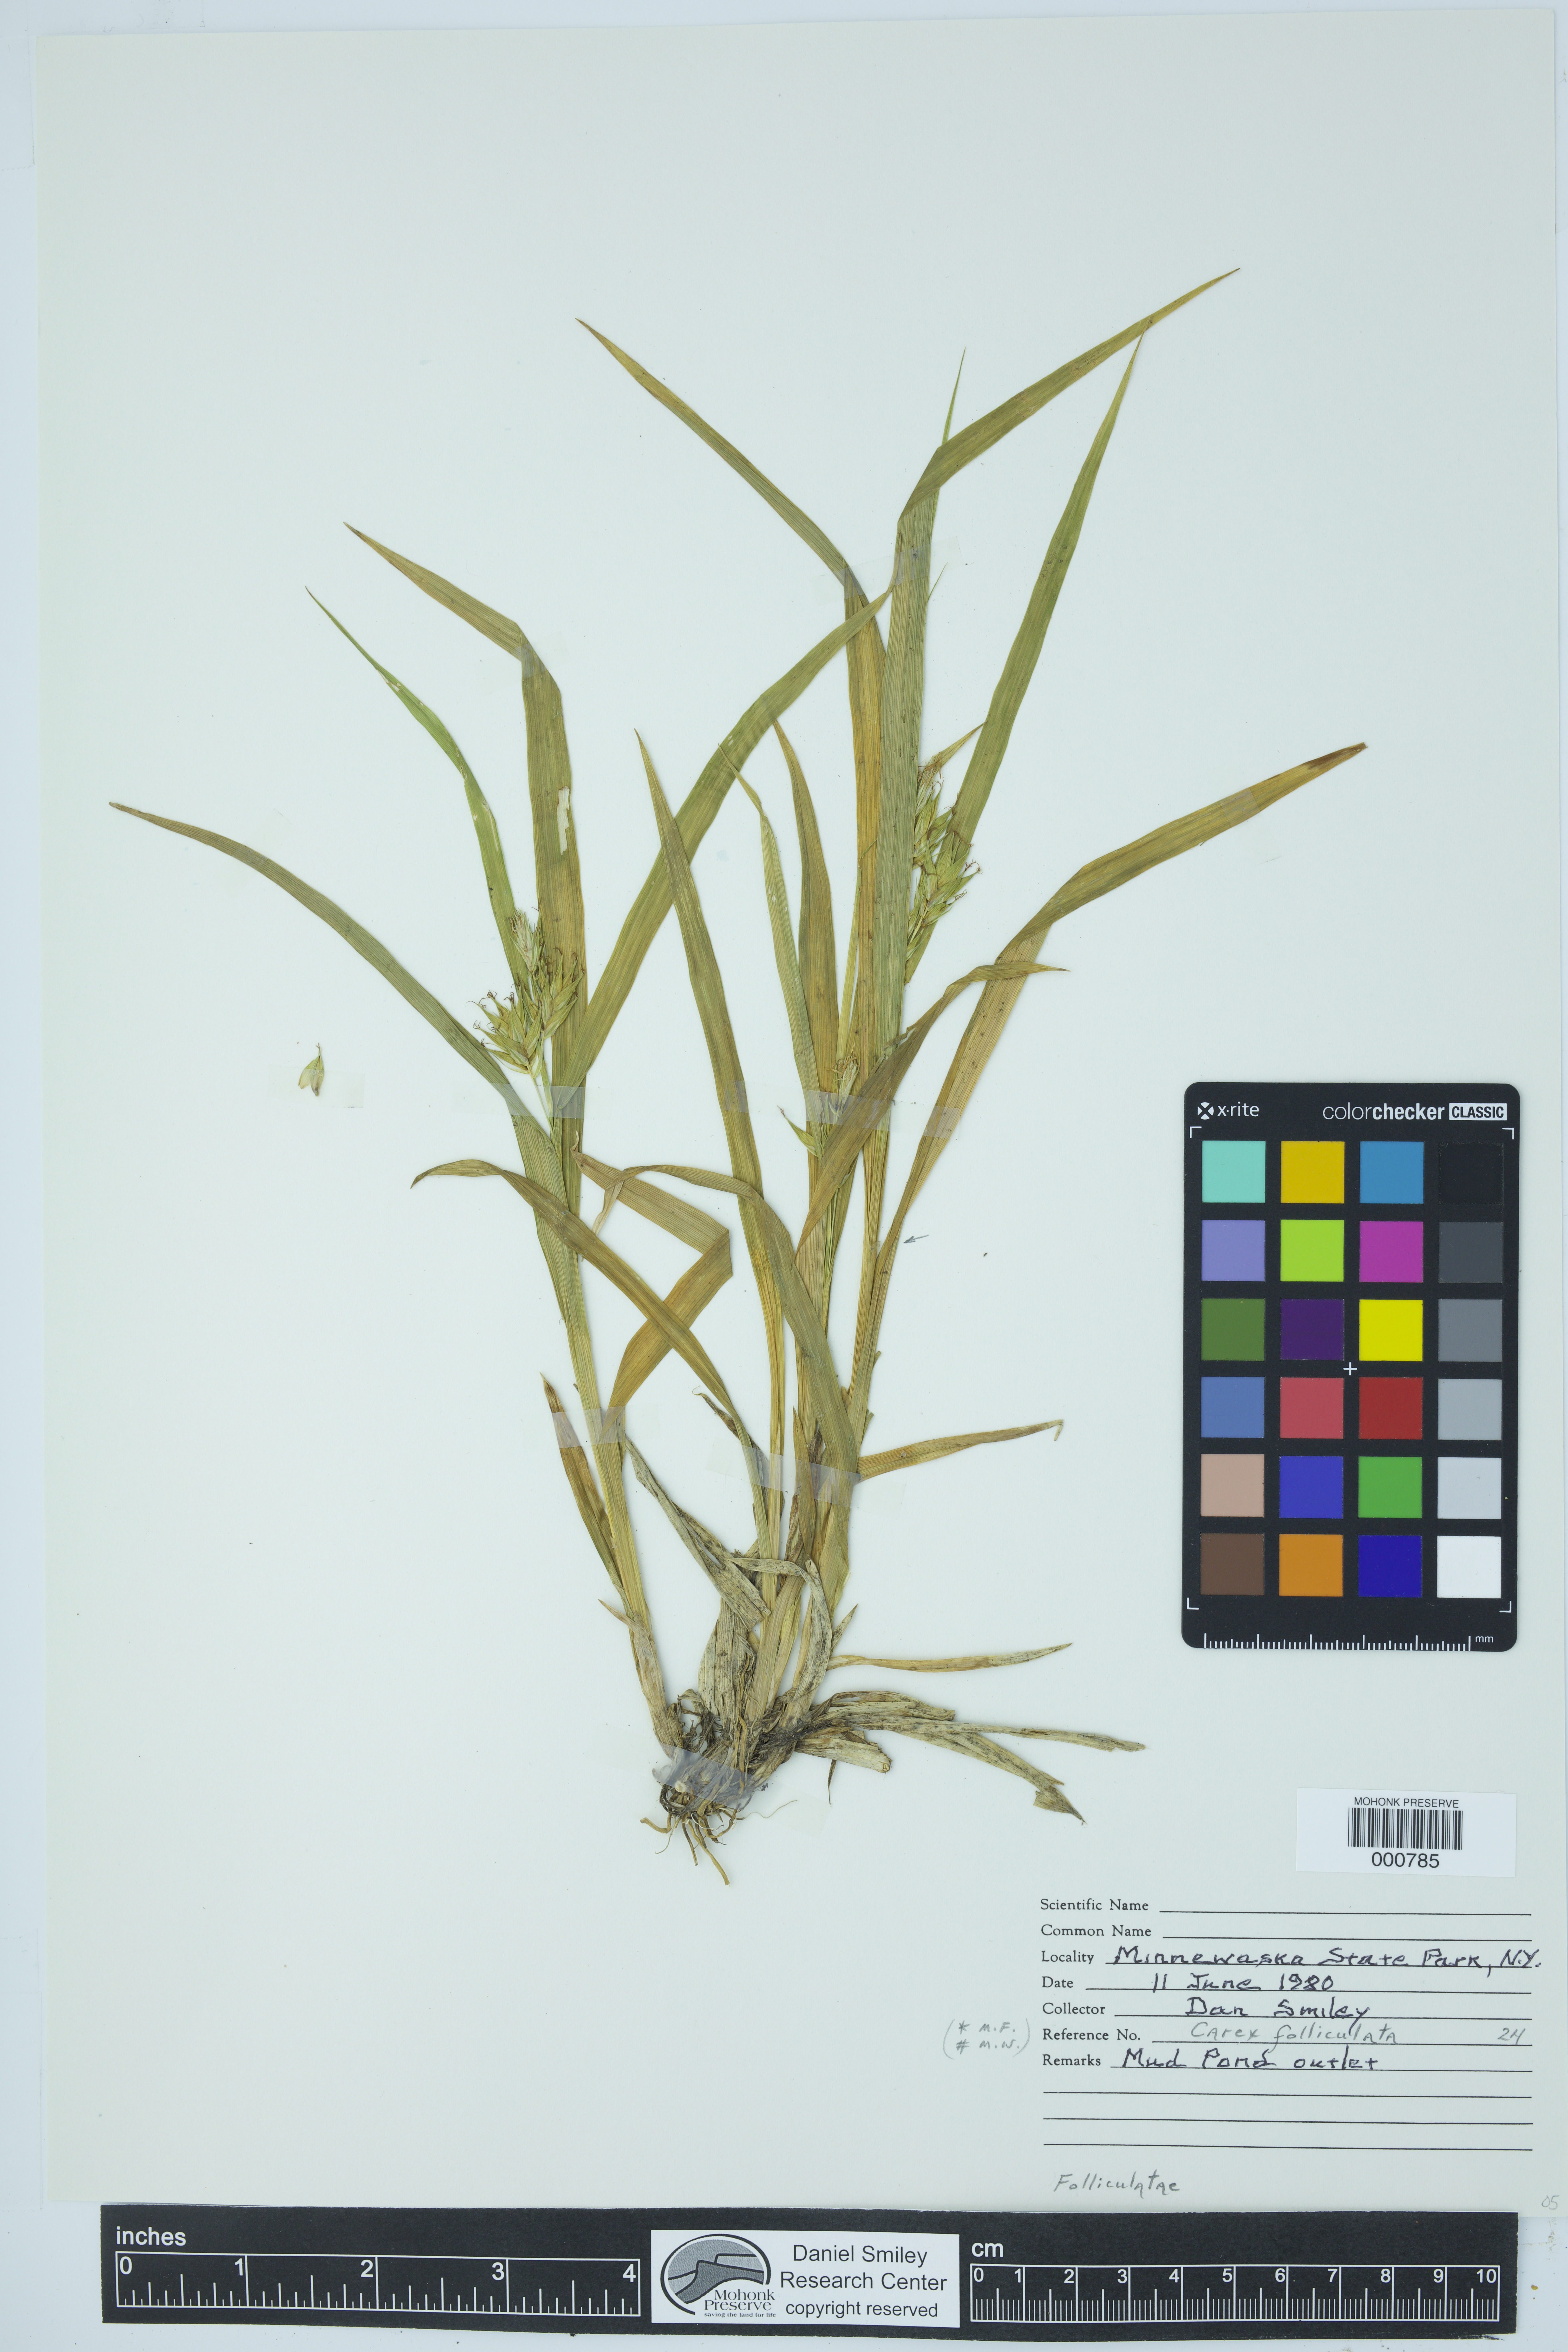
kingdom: Plantae
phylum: Tracheophyta
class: Liliopsida
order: Poales
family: Cyperaceae
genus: Carex
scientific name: Carex folliculata
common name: Northern long sedge
